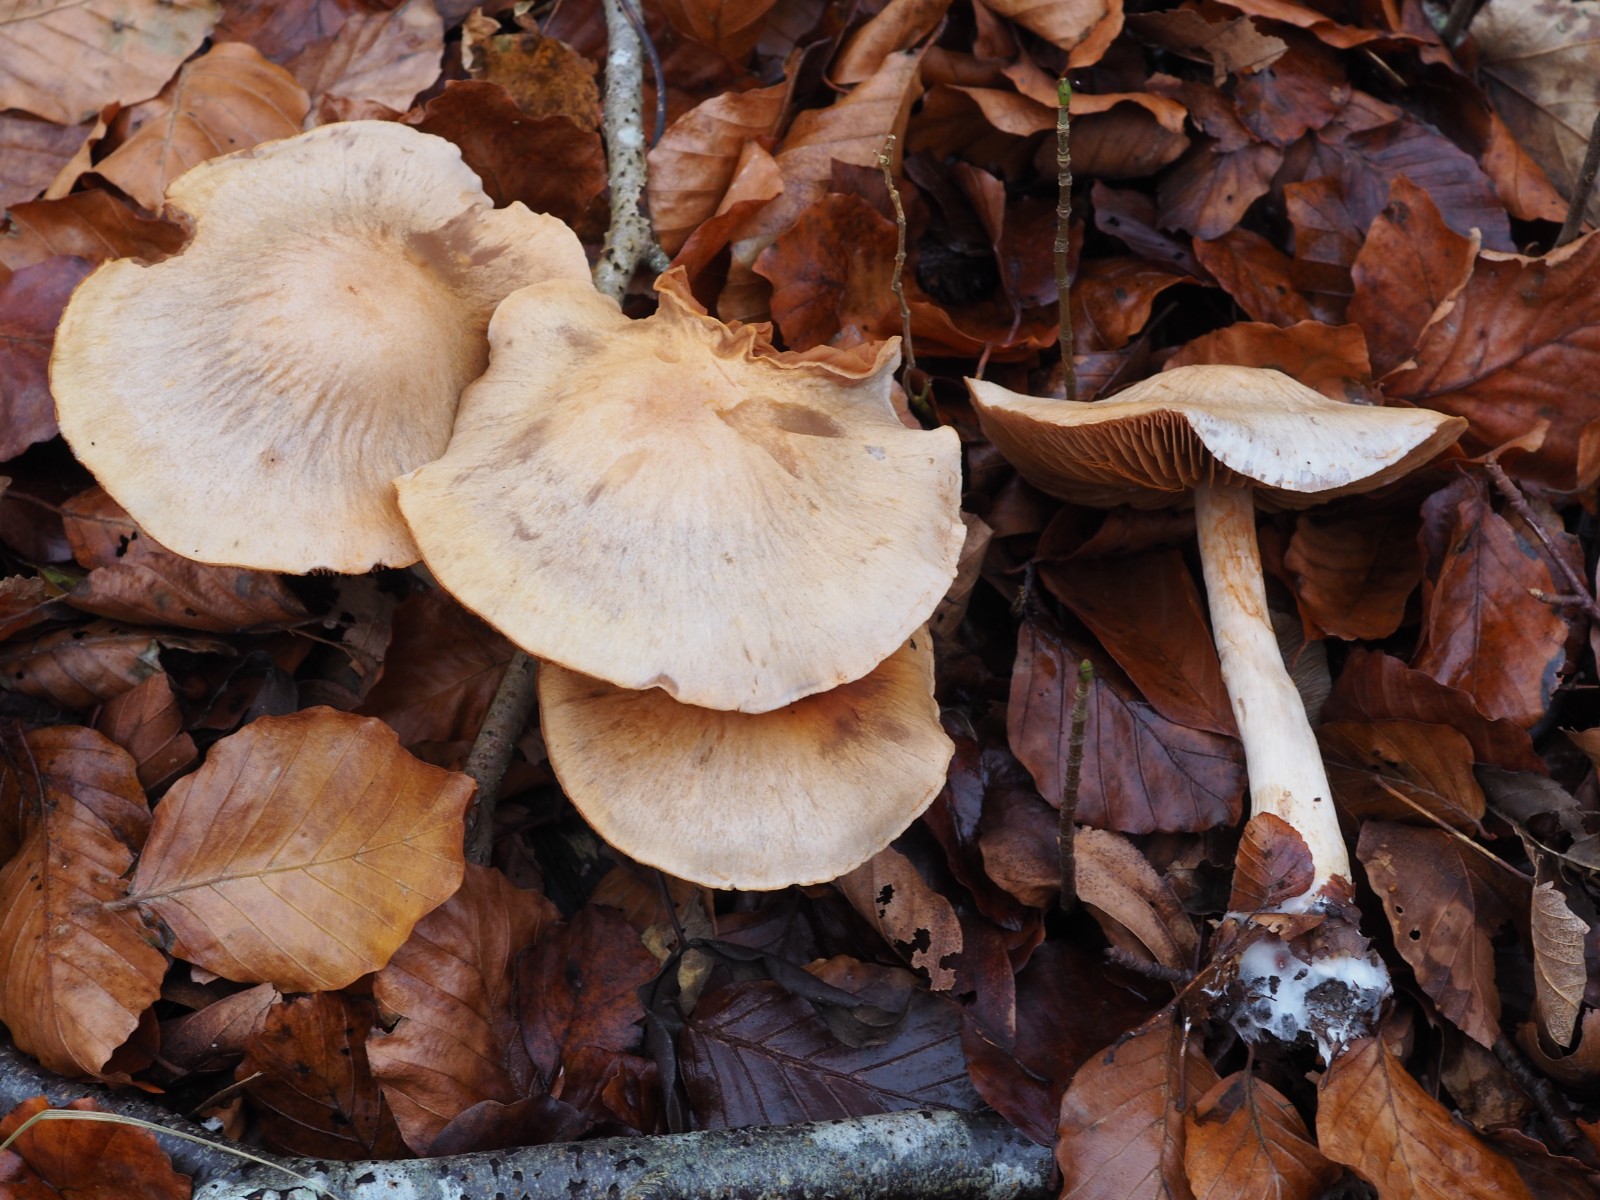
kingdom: Fungi
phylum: Basidiomycota
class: Agaricomycetes
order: Agaricales
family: Cortinariaceae
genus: Cortinarius
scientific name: Cortinarius
